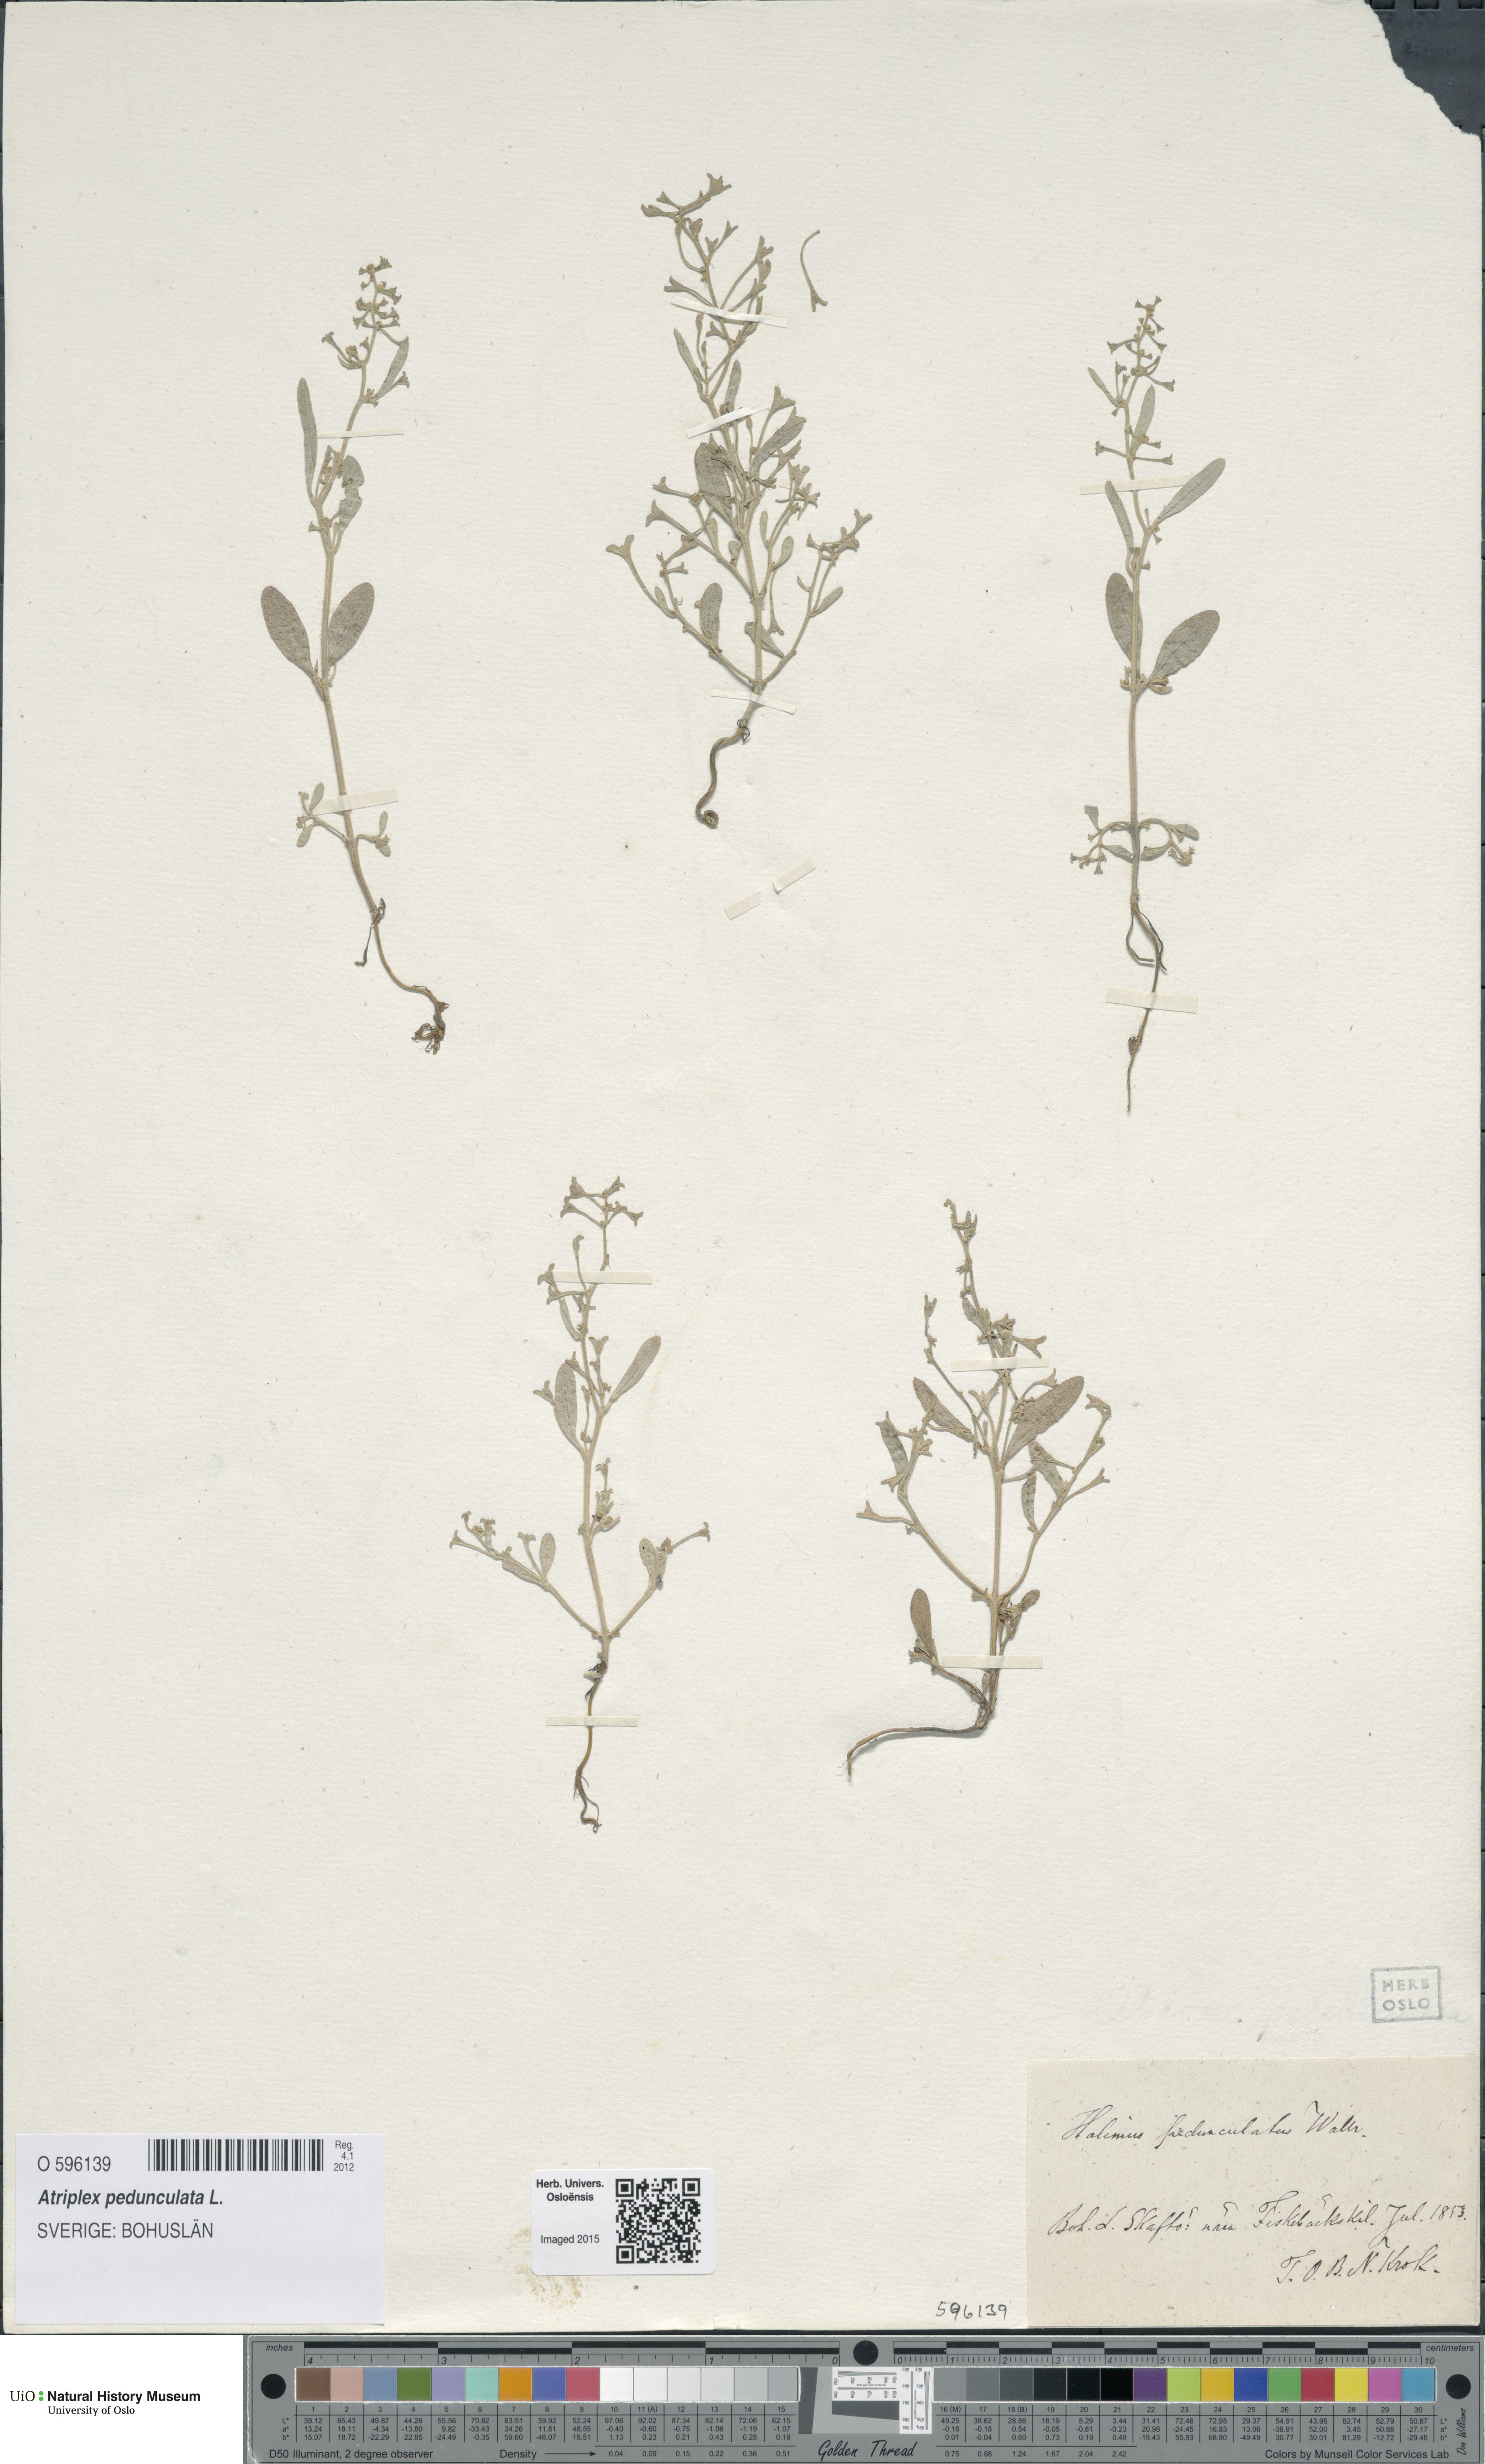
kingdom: Plantae
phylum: Tracheophyta
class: Magnoliopsida
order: Caryophyllales
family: Amaranthaceae
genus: Halimione
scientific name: Halimione pedunculata
